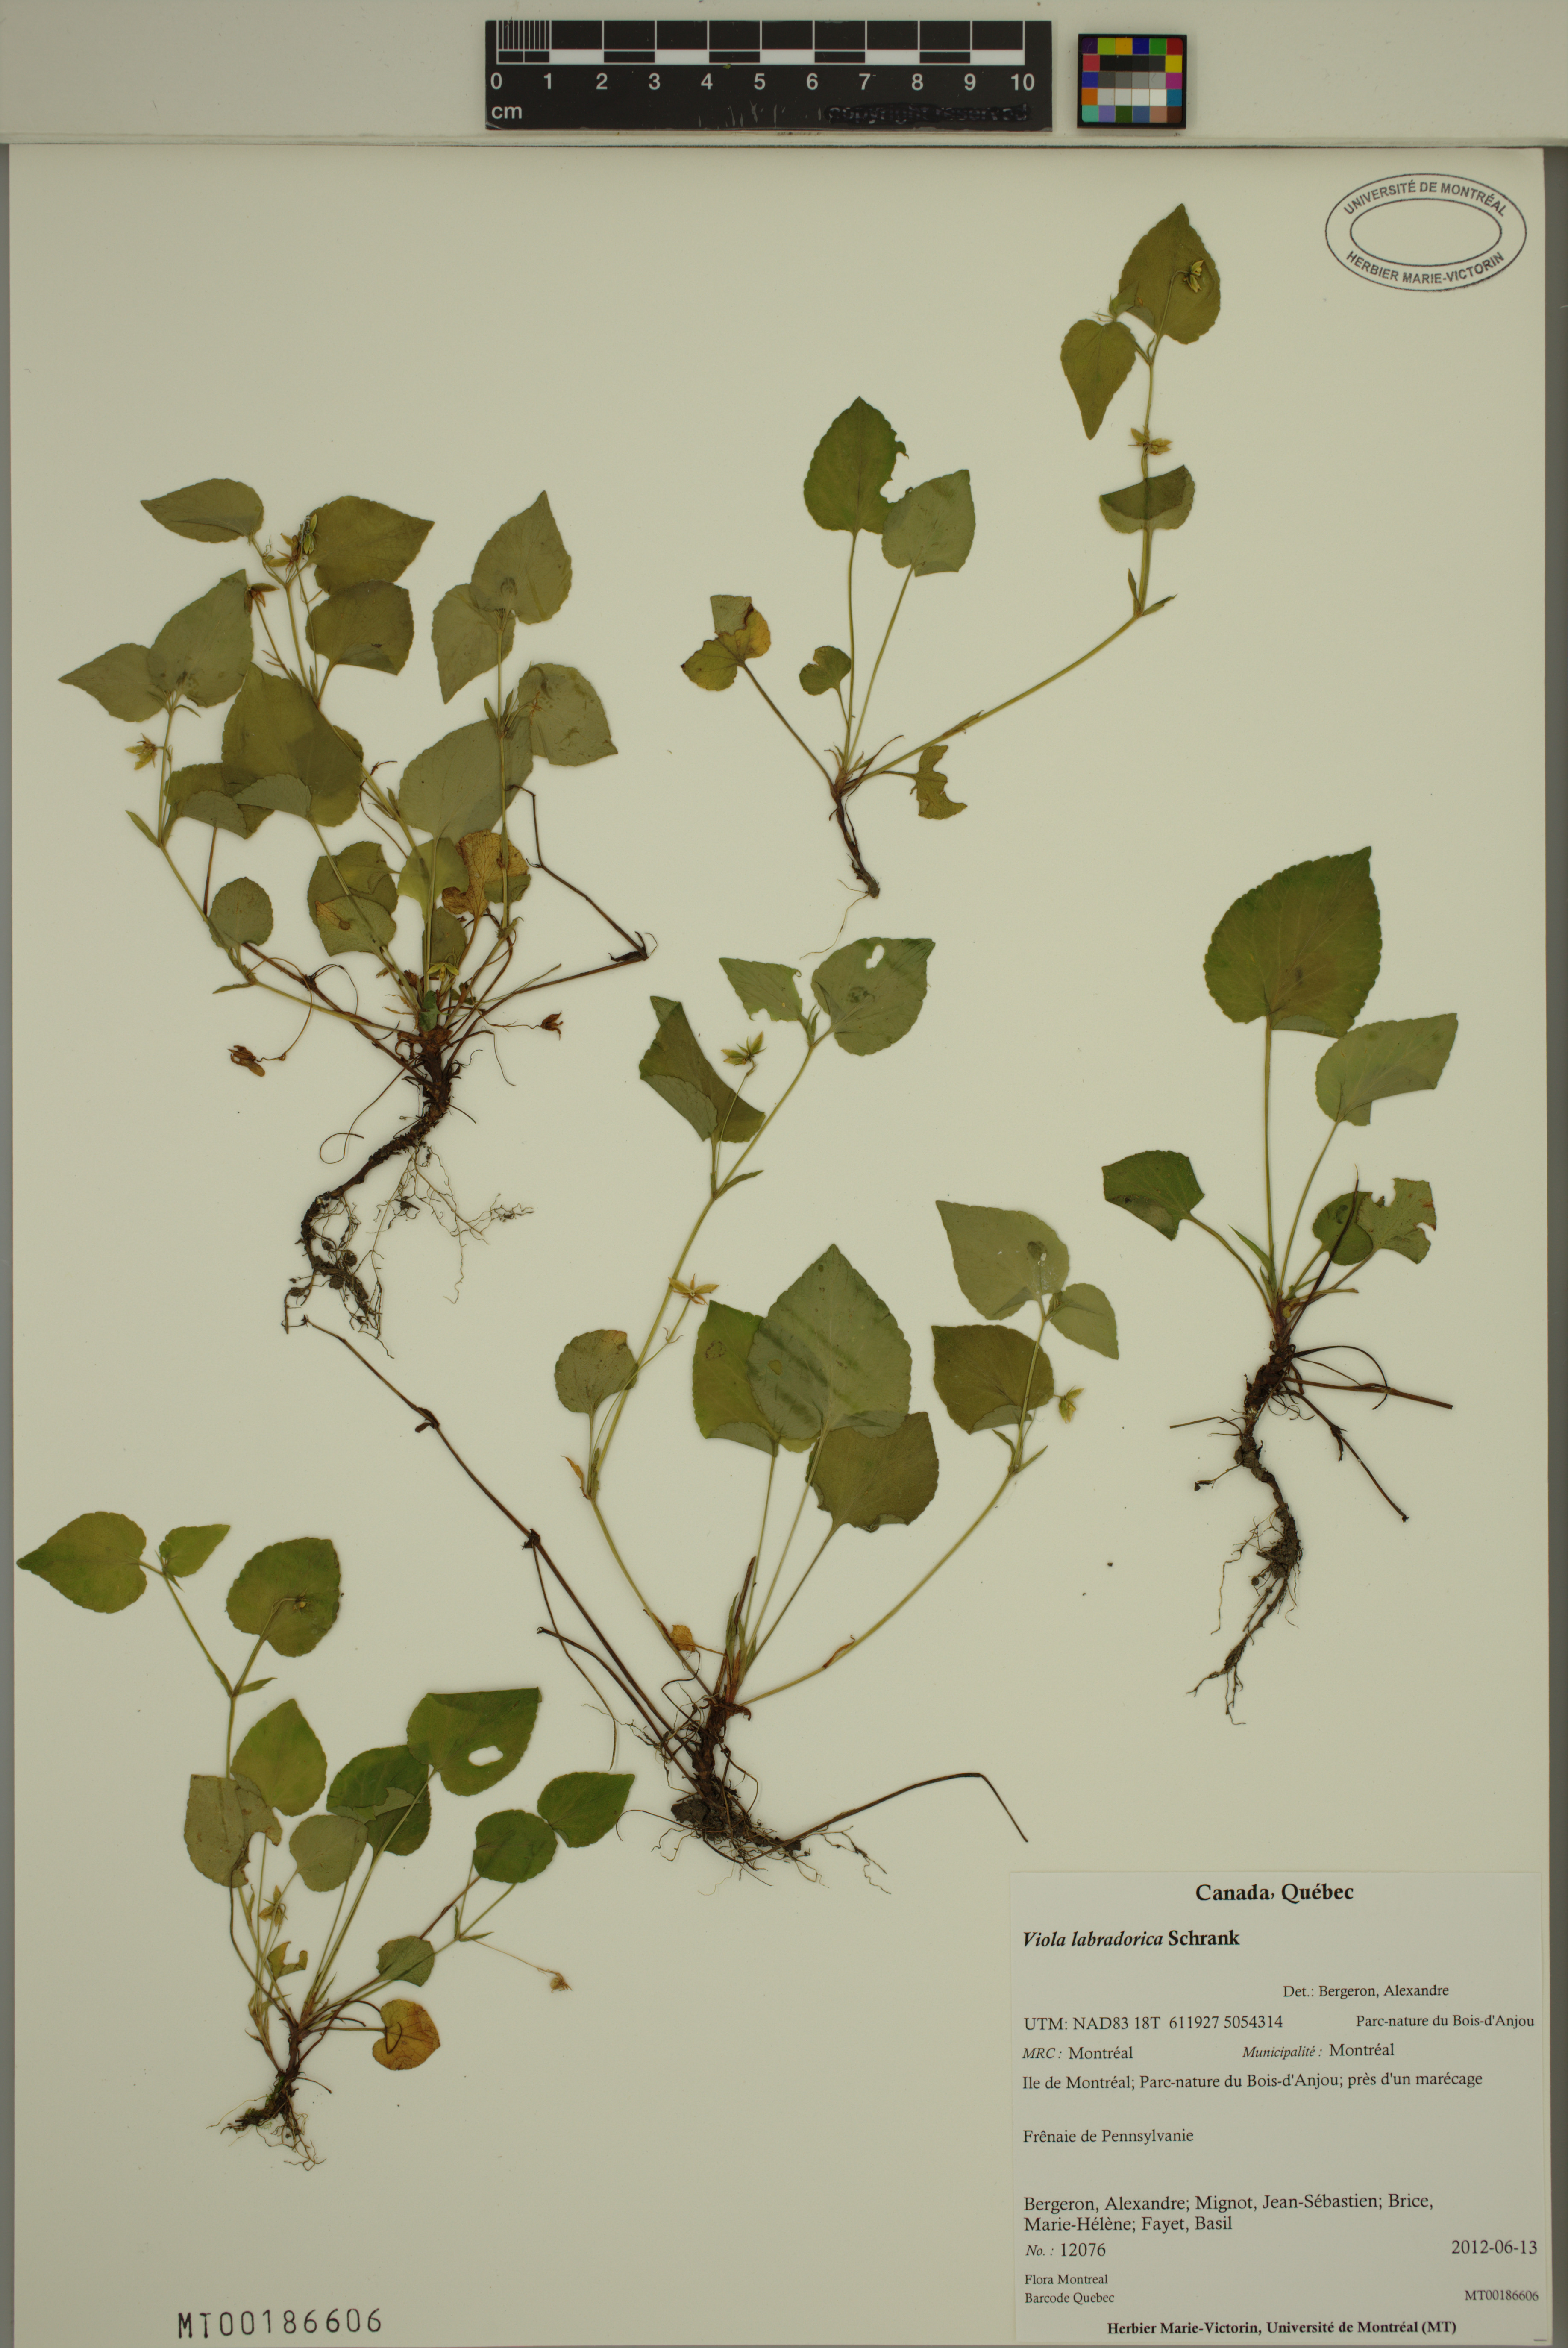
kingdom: Plantae
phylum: Tracheophyta
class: Magnoliopsida
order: Malpighiales
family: Violaceae
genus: Viola
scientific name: Viola labradorica
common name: Labrador violet
